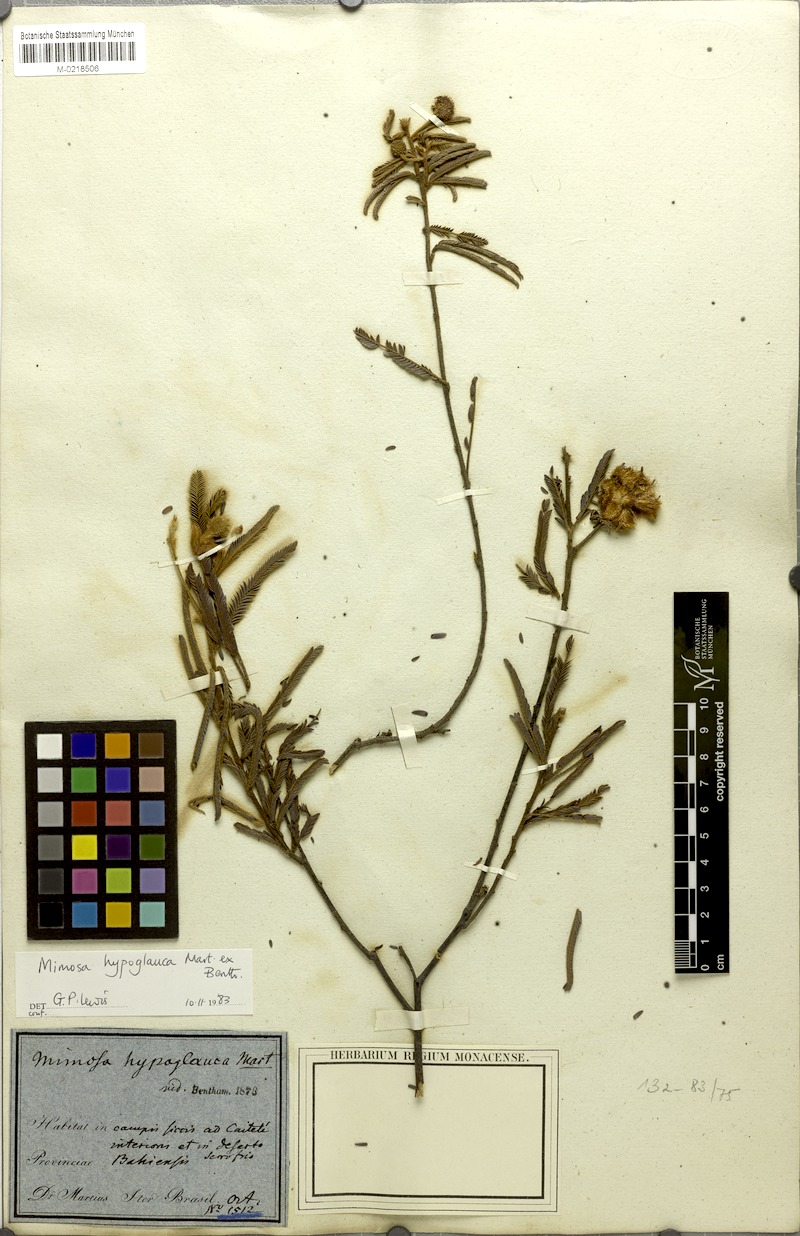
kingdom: Plantae
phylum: Tracheophyta
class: Magnoliopsida
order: Fabales
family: Fabaceae
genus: Mimosa
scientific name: Mimosa hypoglauca
